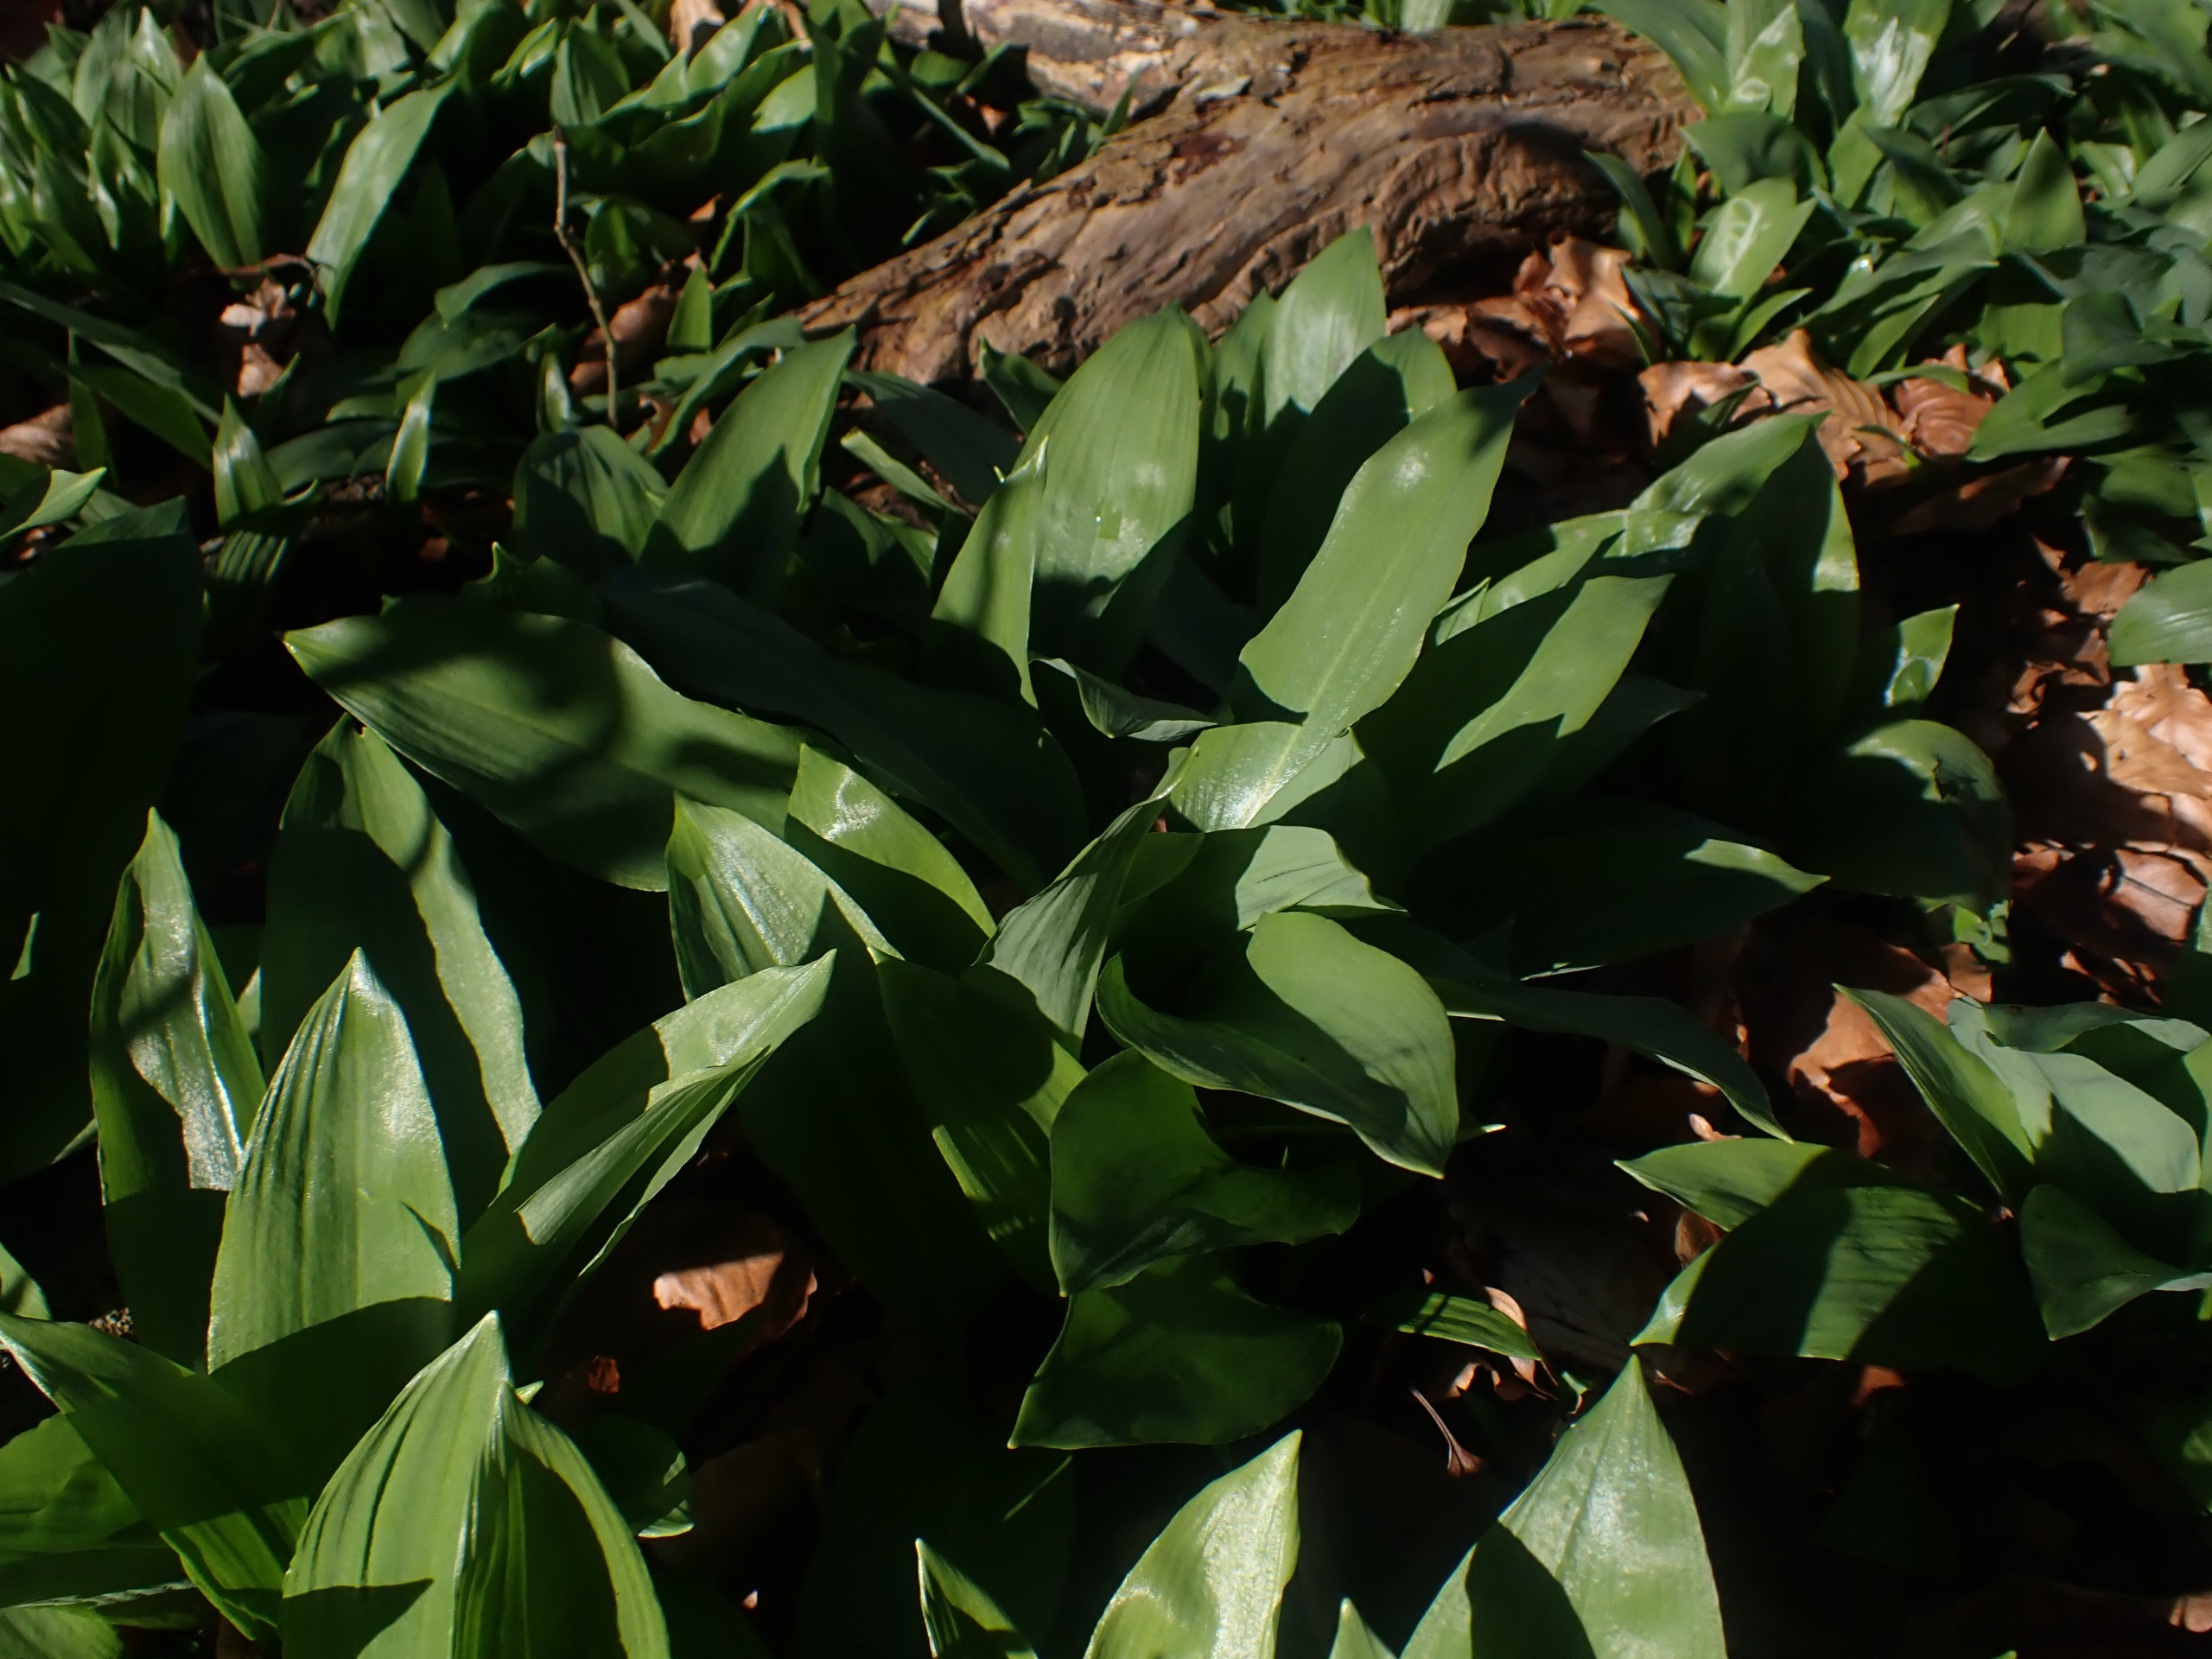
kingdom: Plantae
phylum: Tracheophyta
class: Liliopsida
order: Asparagales
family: Amaryllidaceae
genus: Allium
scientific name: Allium ursinum
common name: Rams-løg
